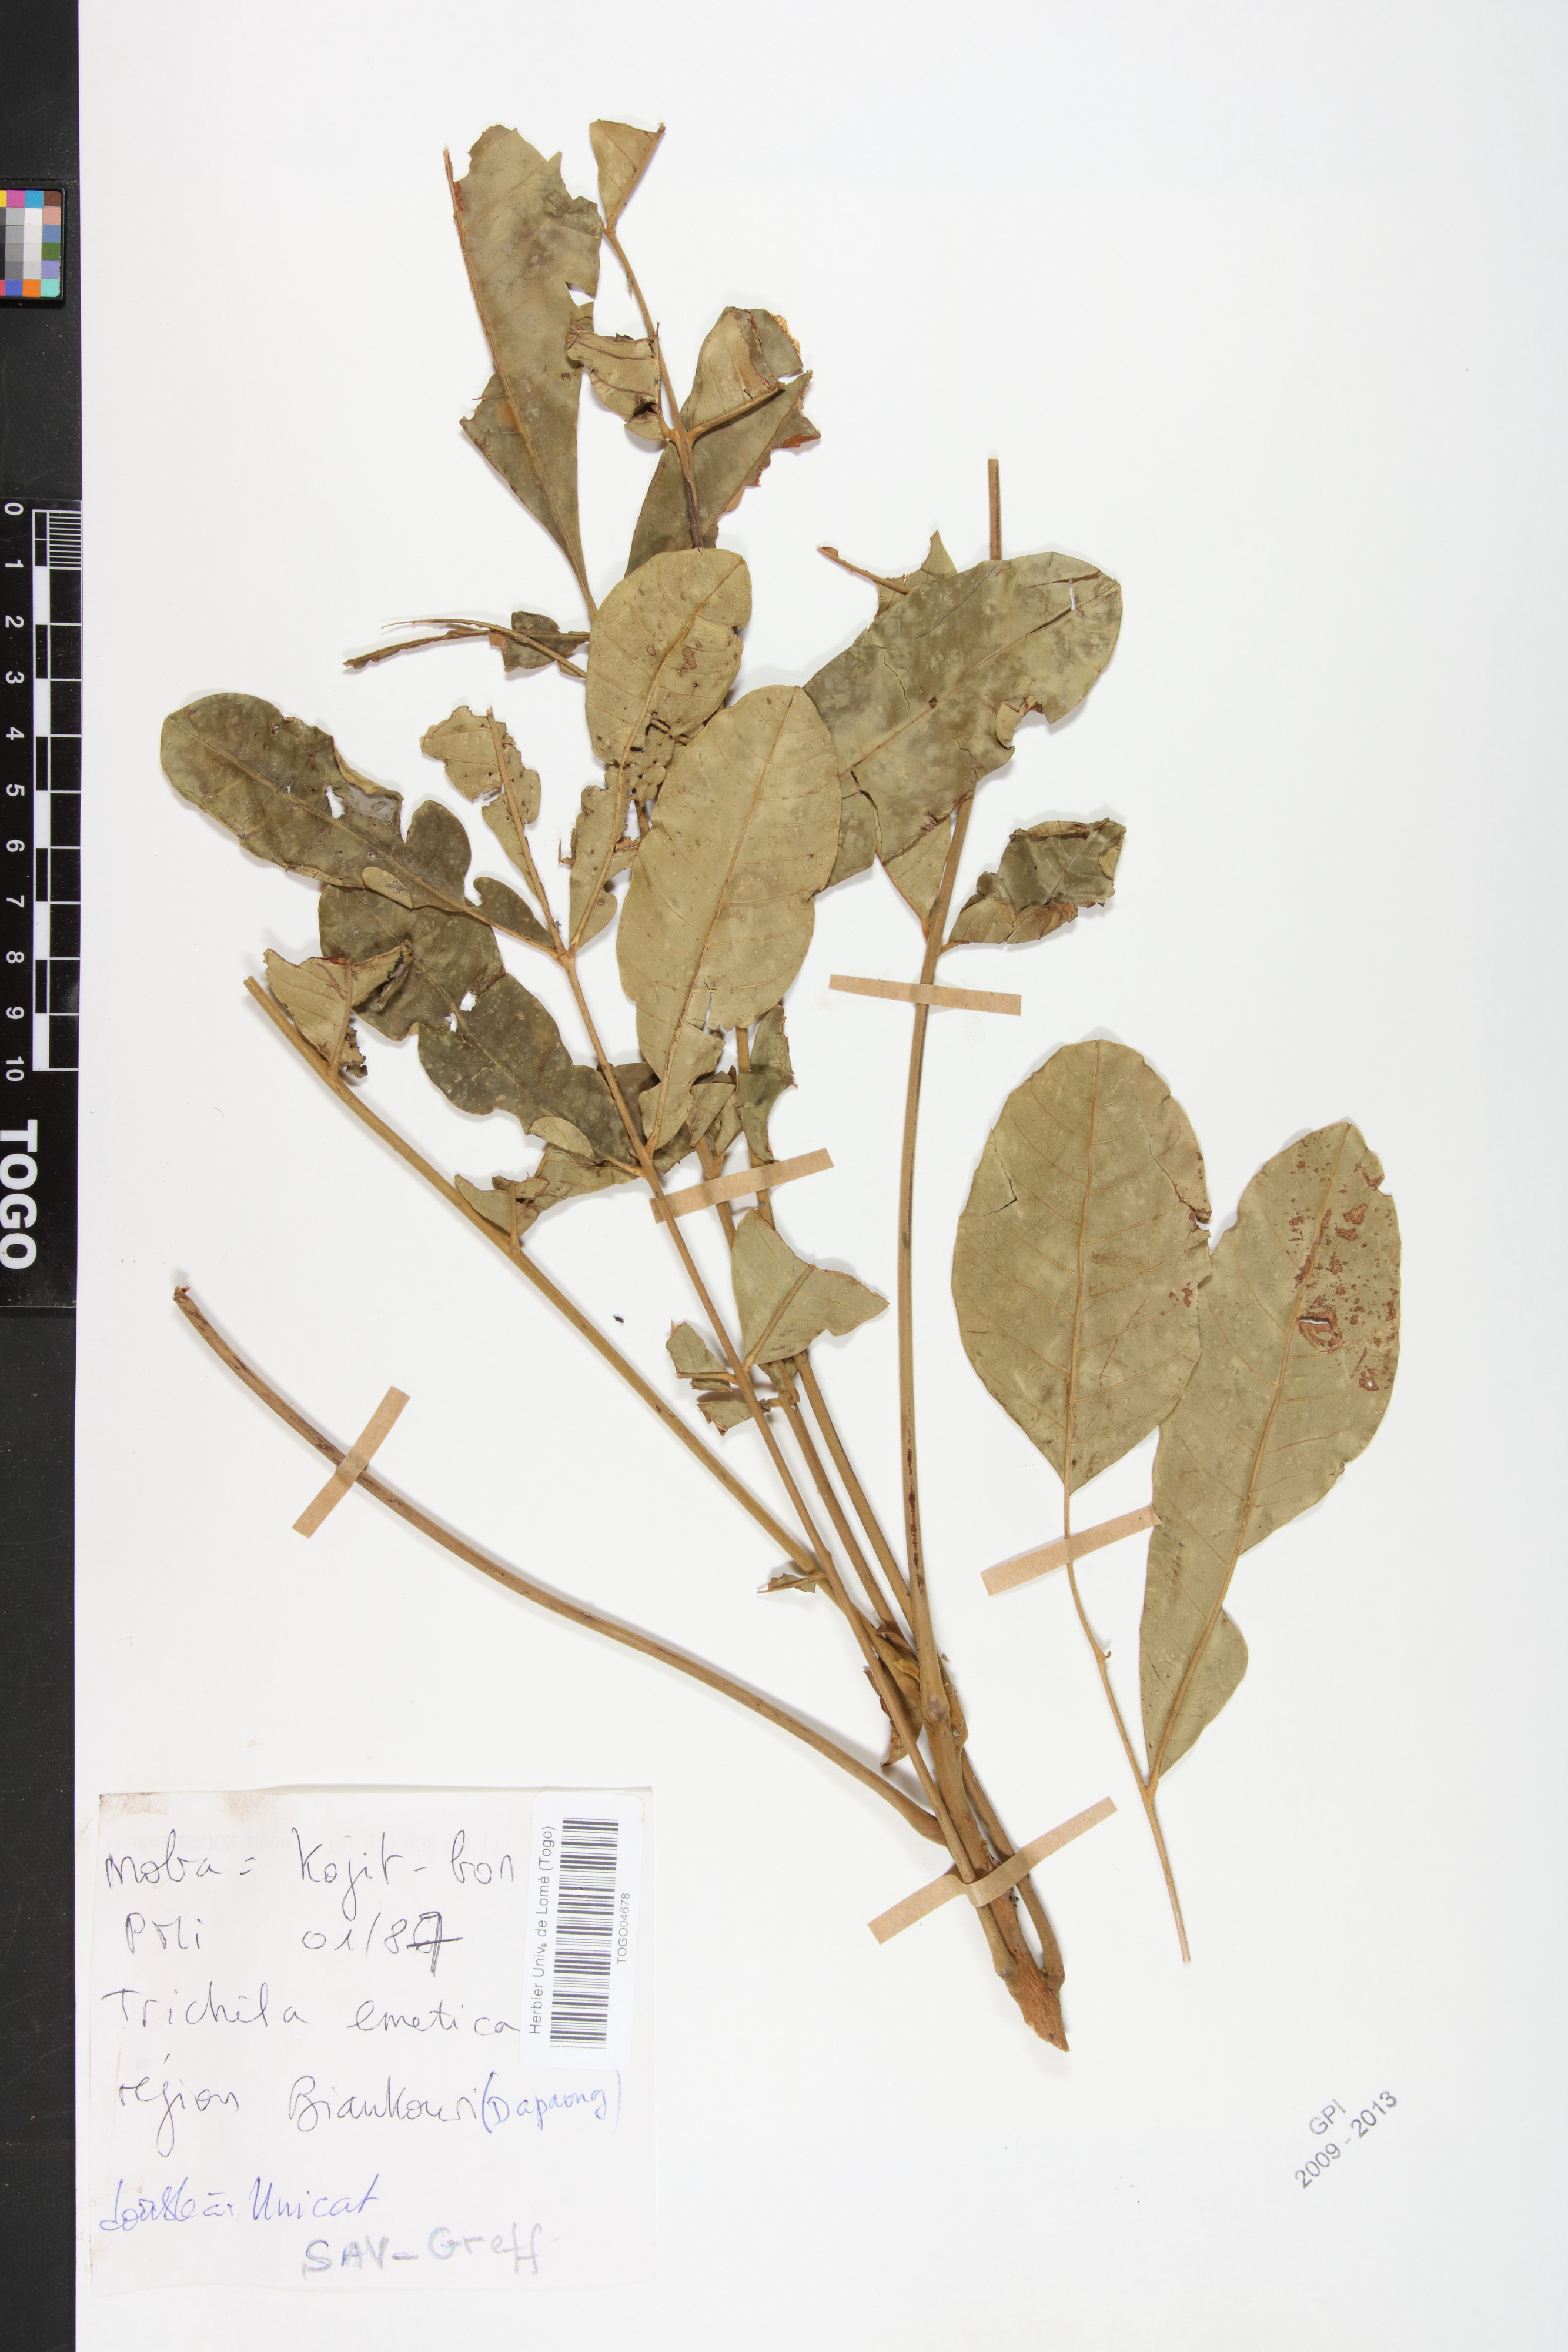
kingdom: Plantae
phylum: Tracheophyta
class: Magnoliopsida
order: Sapindales
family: Meliaceae
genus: Trichilia
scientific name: Trichilia emetica
